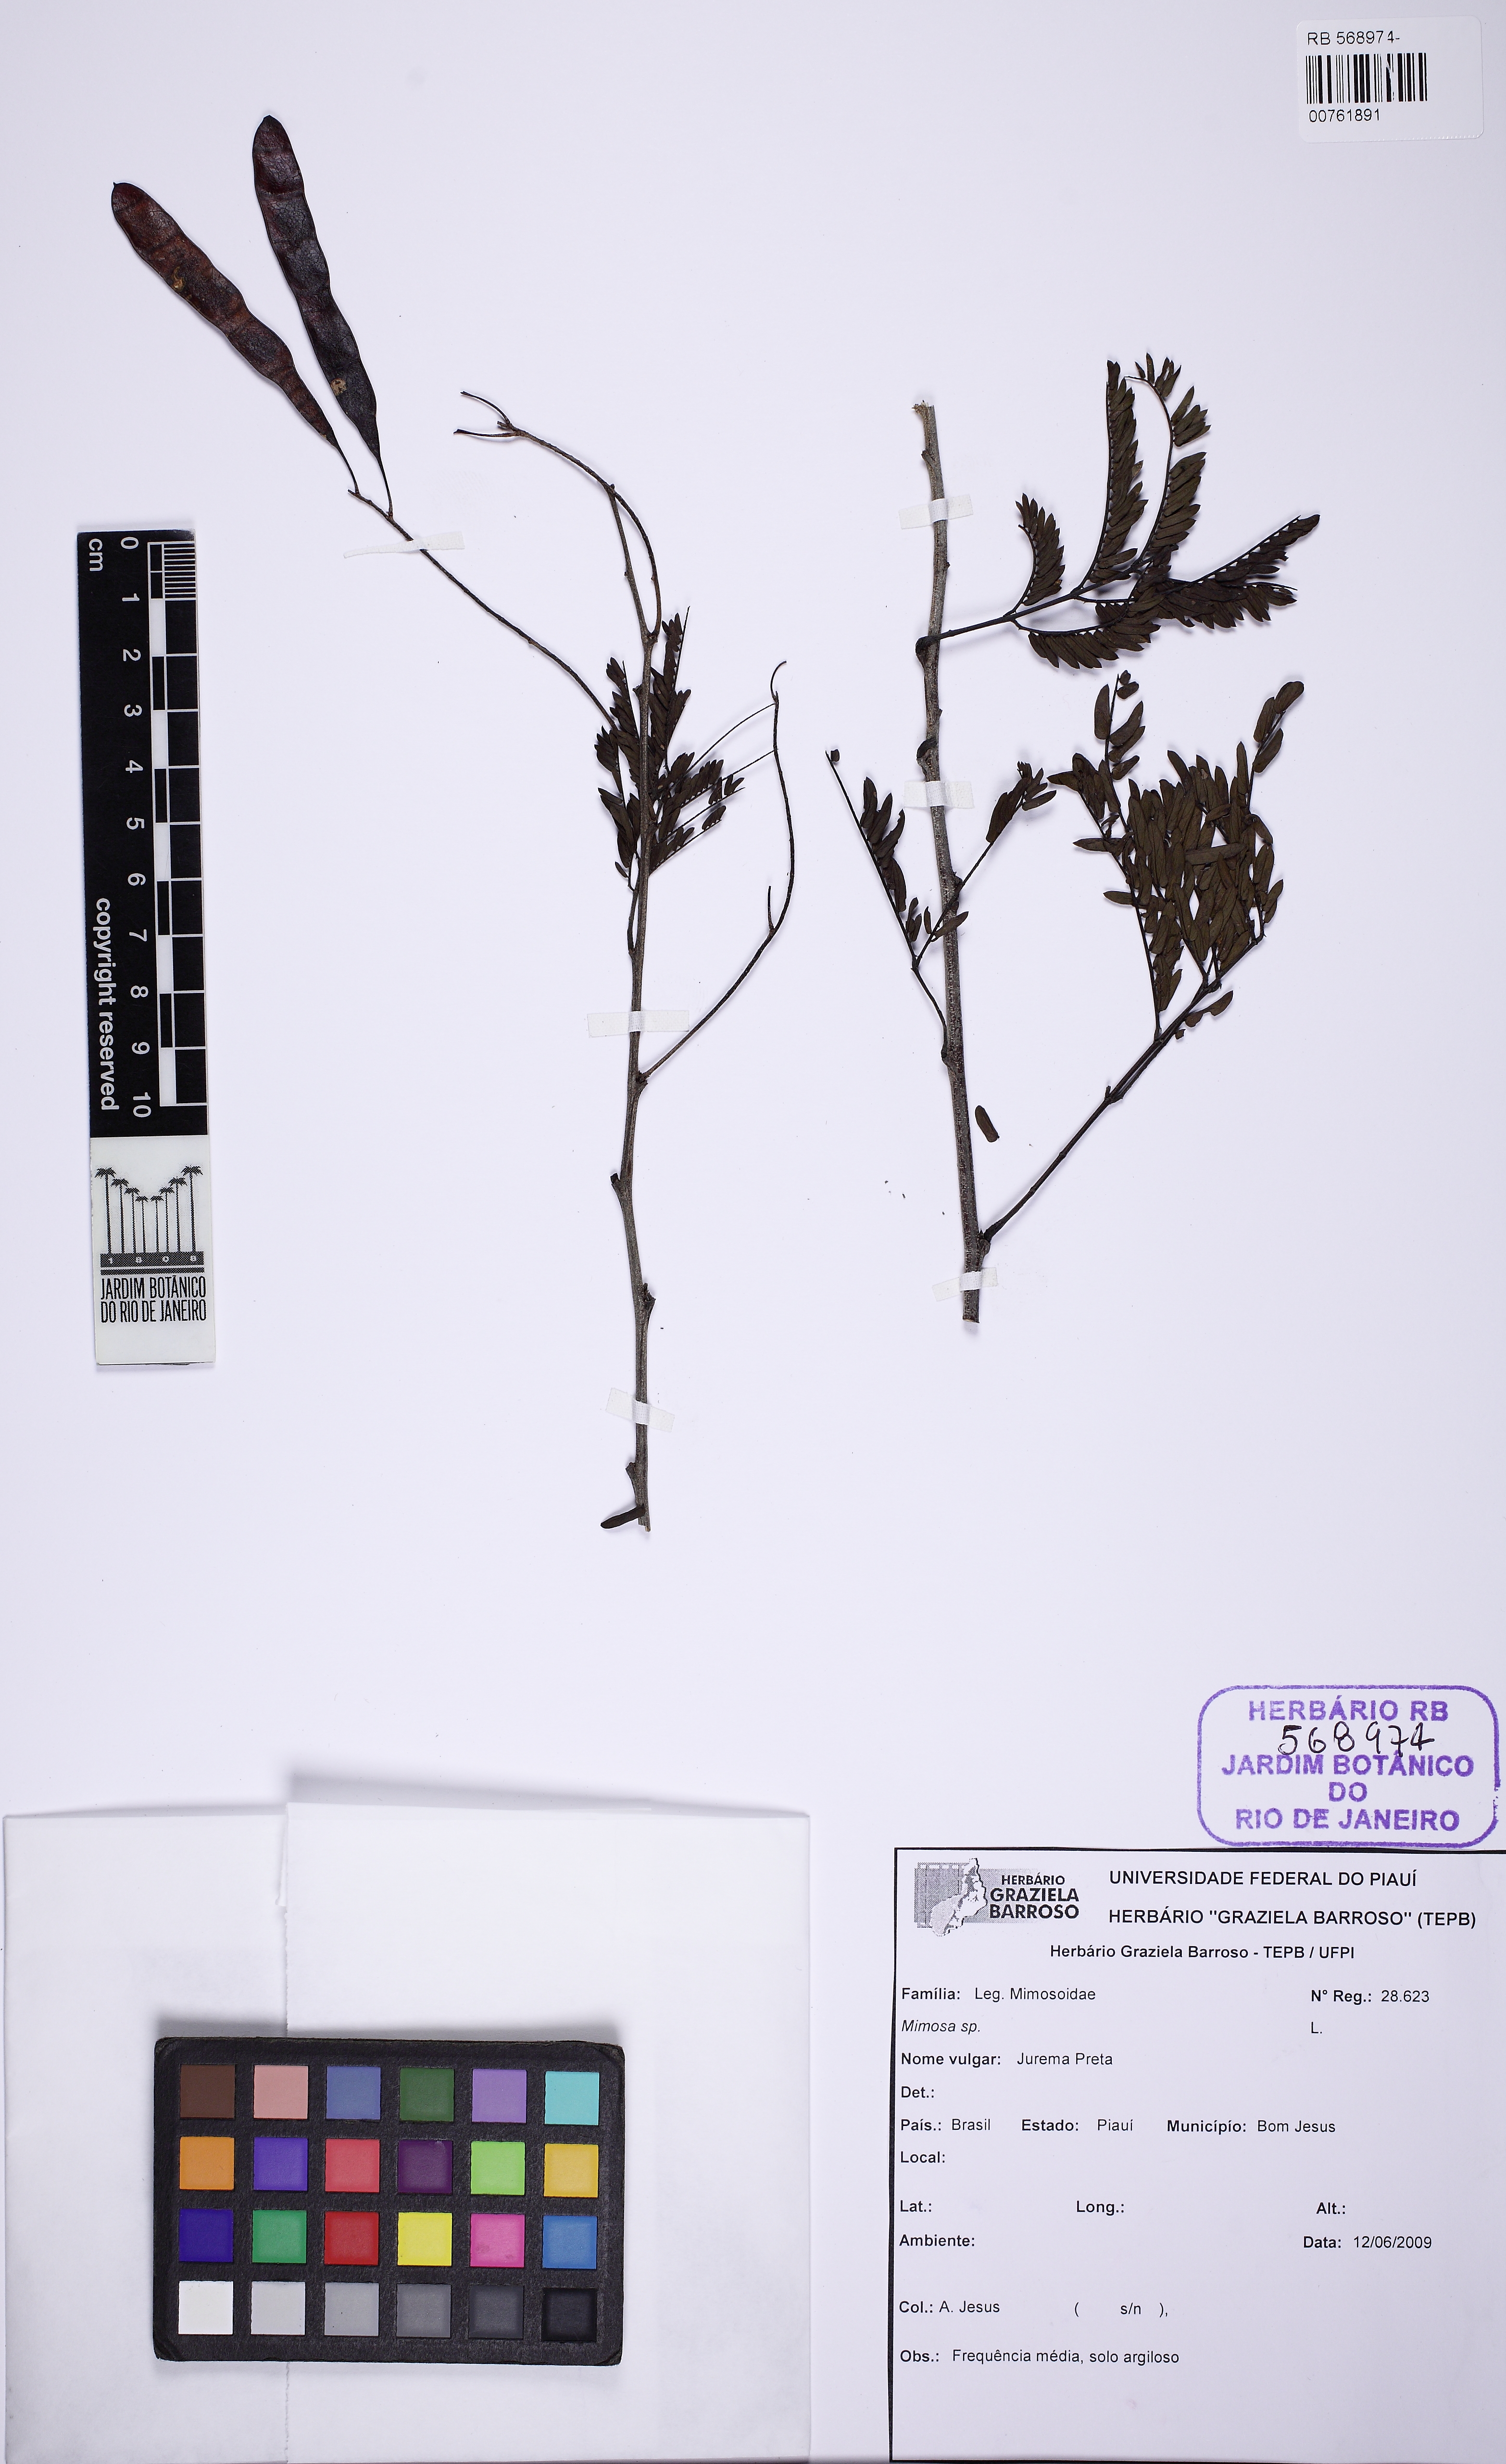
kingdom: Plantae
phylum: Tracheophyta
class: Magnoliopsida
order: Fabales
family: Fabaceae
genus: Mimosa
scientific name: Mimosa
